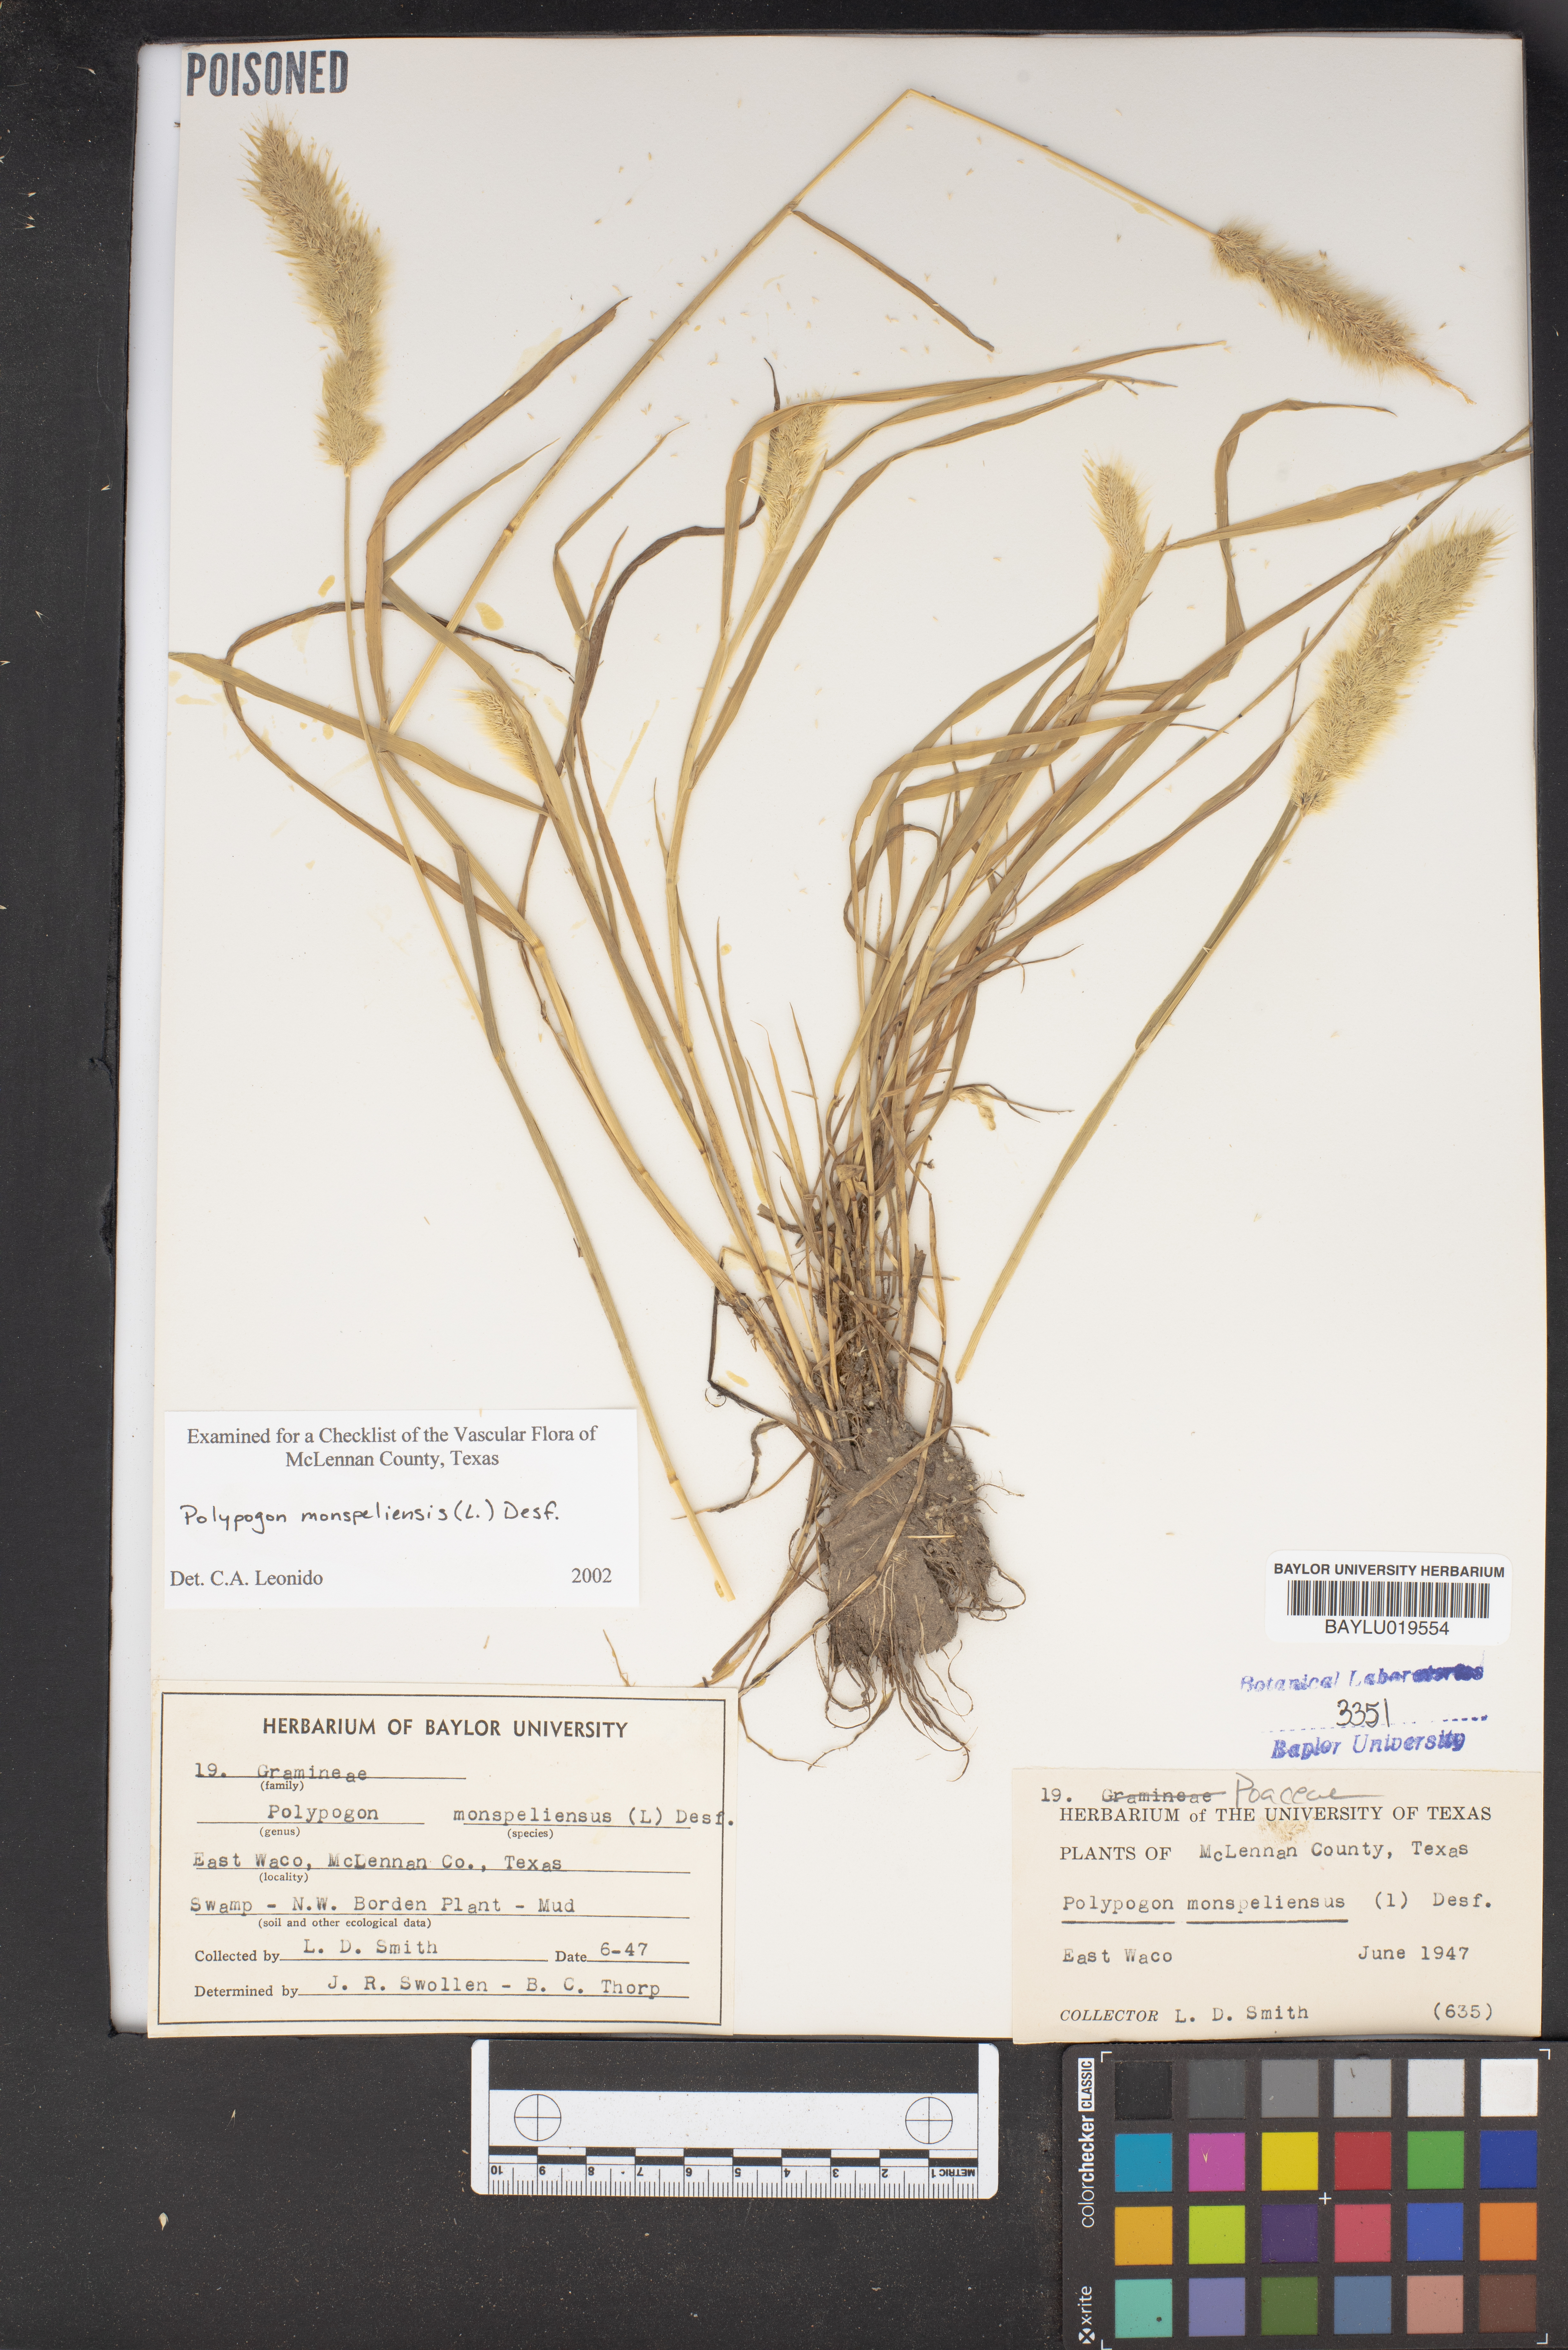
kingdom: Plantae
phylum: Tracheophyta
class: Liliopsida
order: Poales
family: Poaceae
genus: Polypogon
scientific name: Polypogon monspeliensis
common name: Annual rabbitsfoot grass
